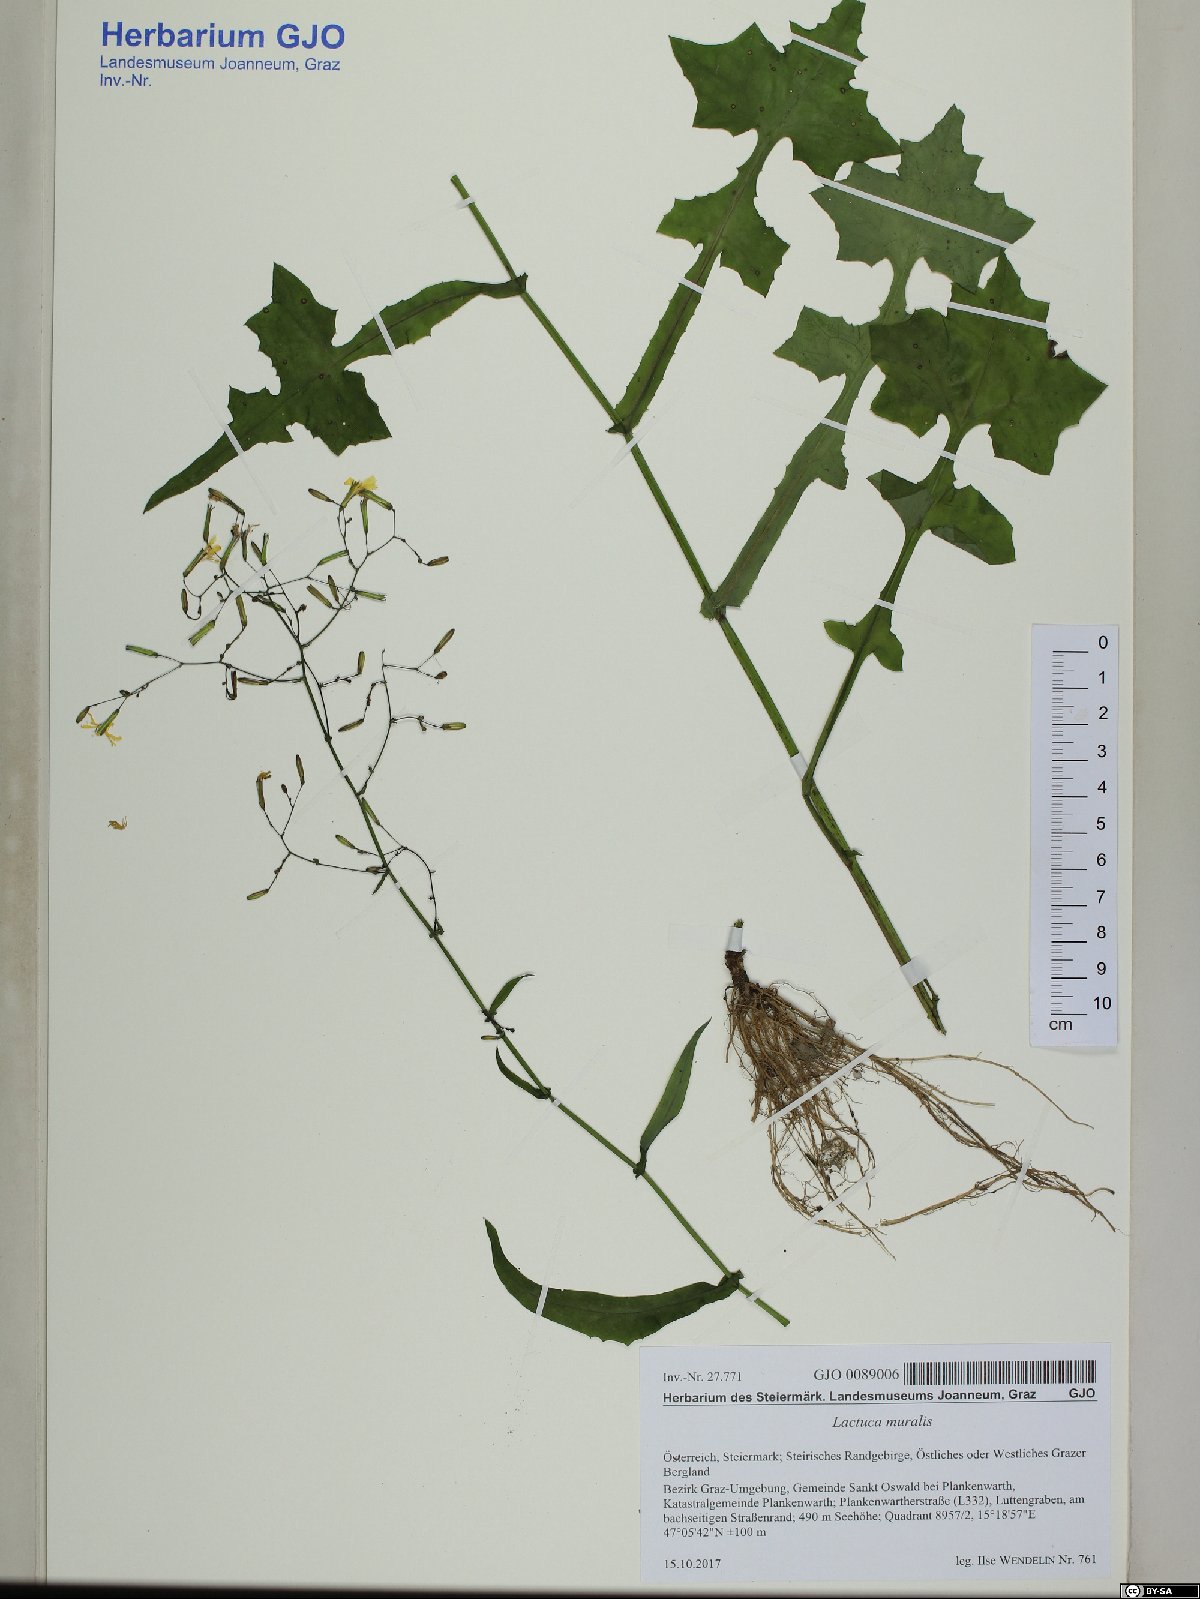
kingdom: Plantae
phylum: Tracheophyta
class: Magnoliopsida
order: Asterales
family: Asteraceae
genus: Mycelis
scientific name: Mycelis muralis
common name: Wall lettuce
